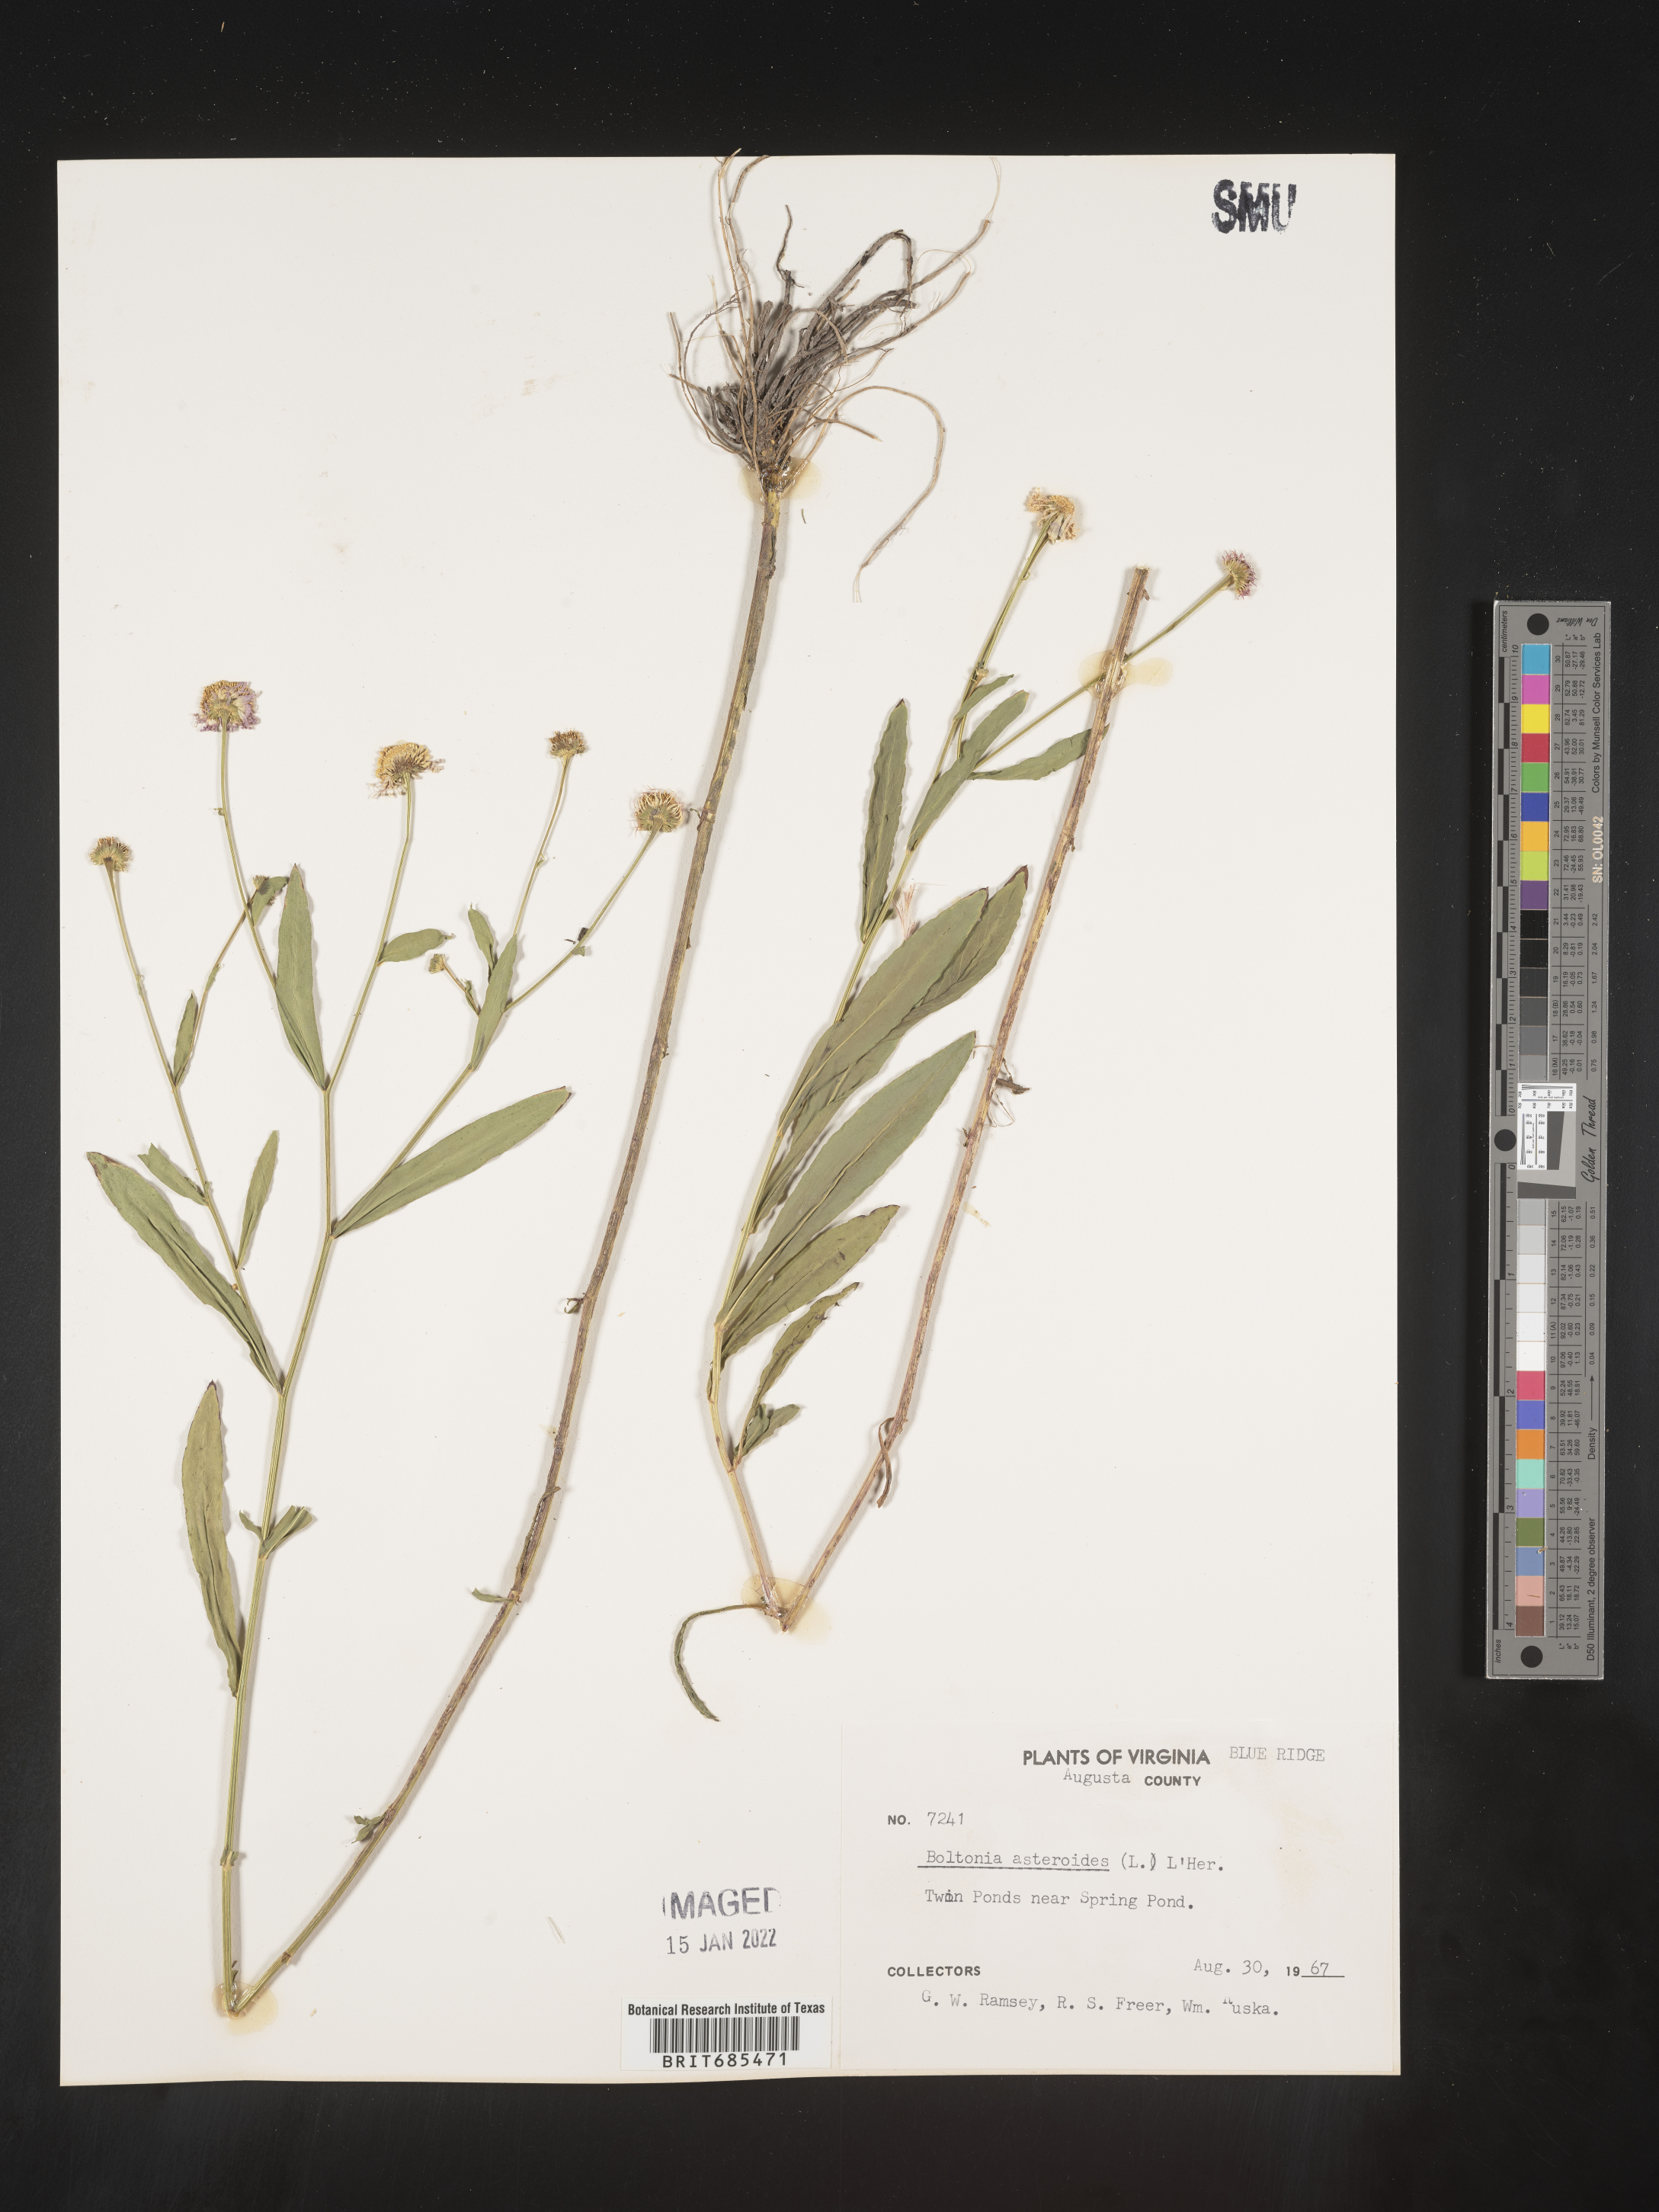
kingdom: Plantae
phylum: Tracheophyta
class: Magnoliopsida
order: Asterales
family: Asteraceae
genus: Boltonia
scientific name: Boltonia asteroides
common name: False chamomile
